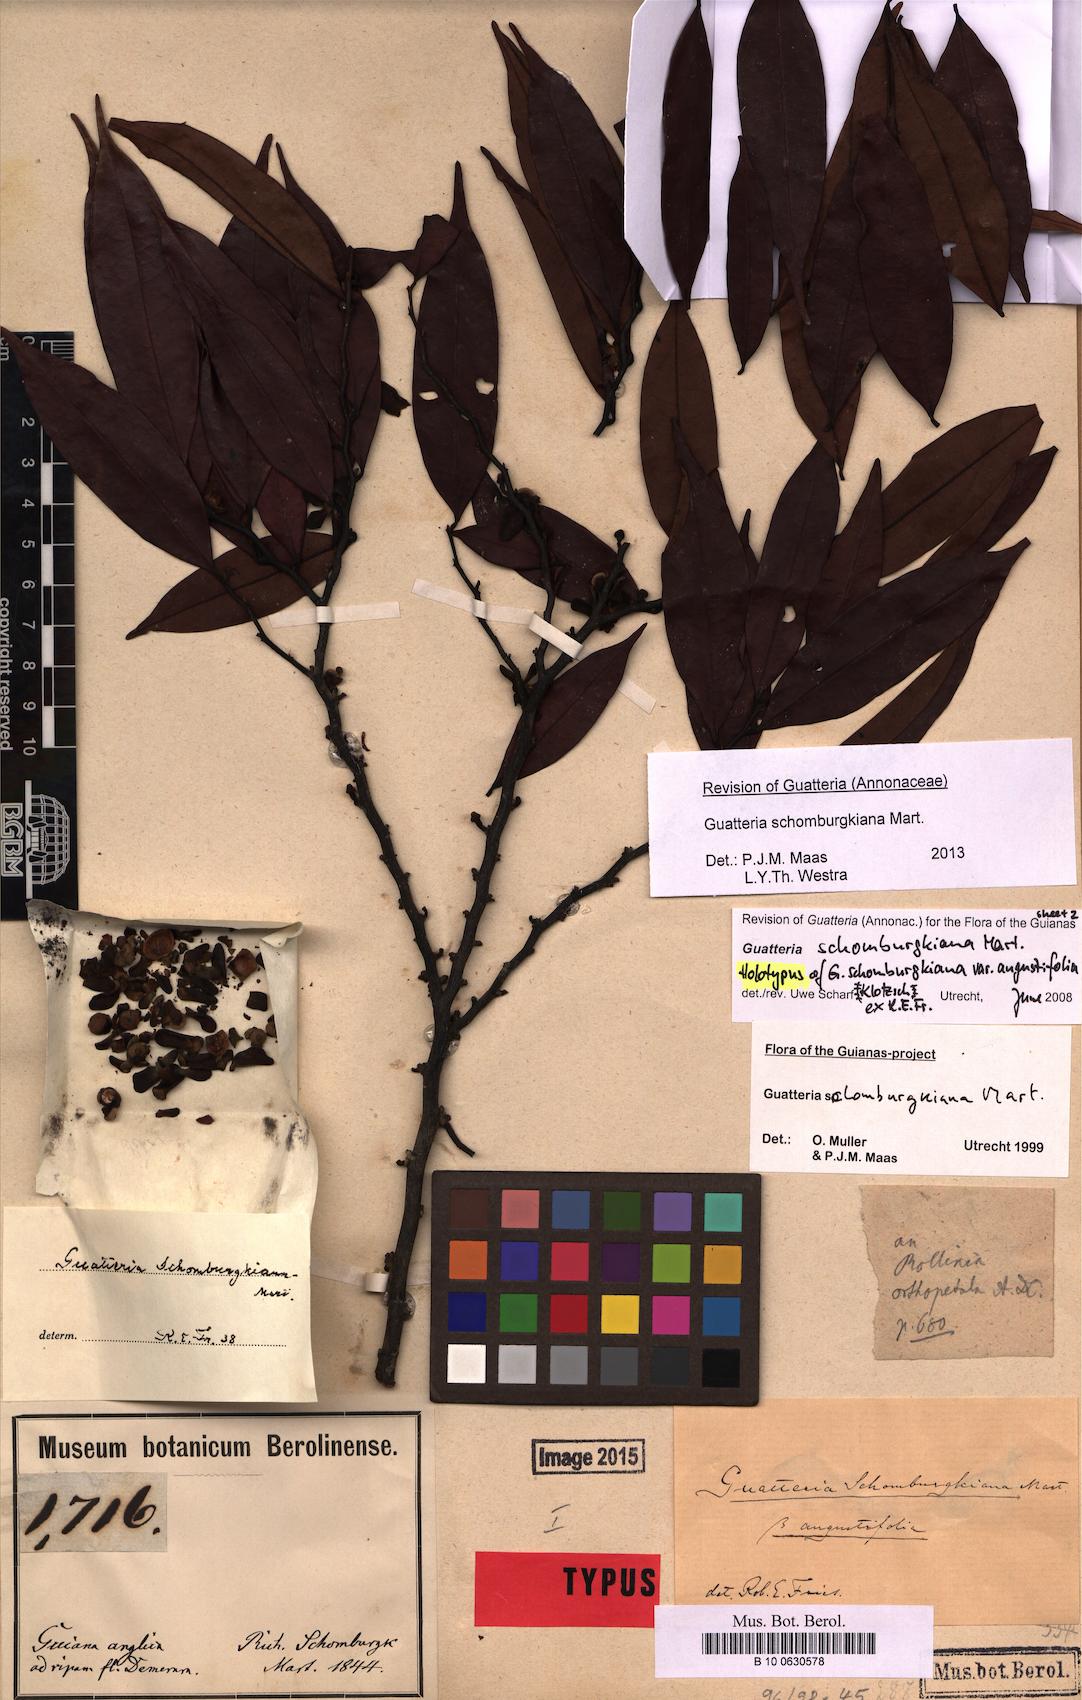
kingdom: Plantae
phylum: Tracheophyta
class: Magnoliopsida
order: Magnoliales
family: Annonaceae
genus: Guatteria
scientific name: Guatteria schomburgkiana
